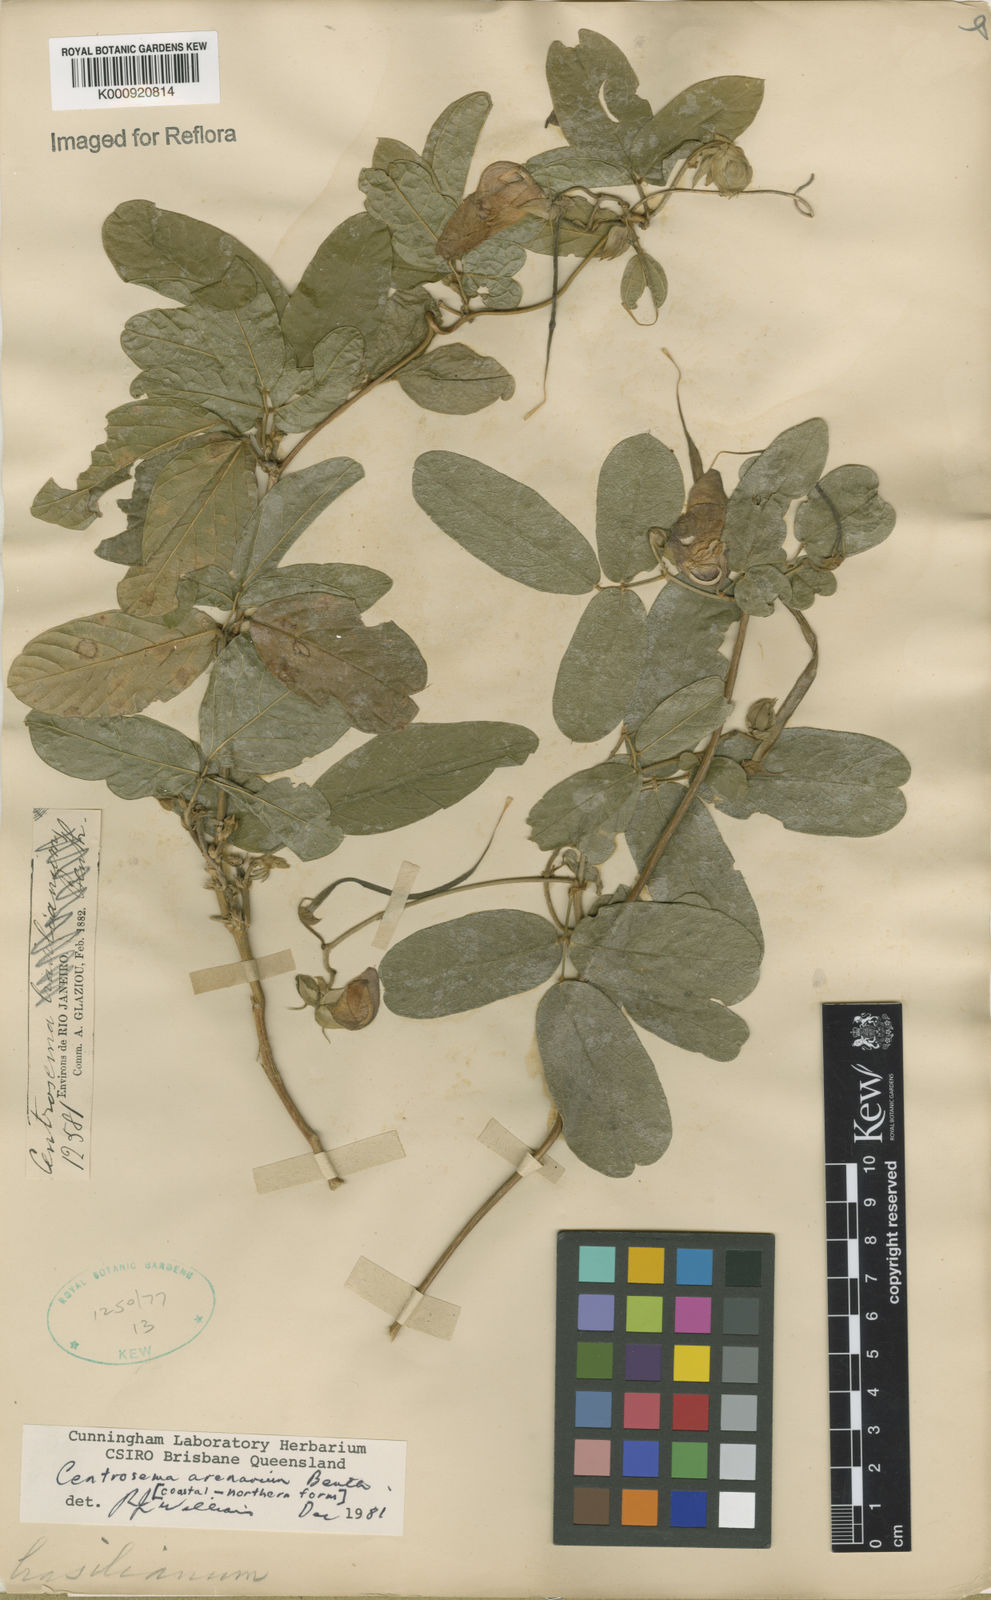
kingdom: Plantae
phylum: Tracheophyta
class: Magnoliopsida
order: Fabales
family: Fabaceae
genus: Centrosema
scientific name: Centrosema arenarium
